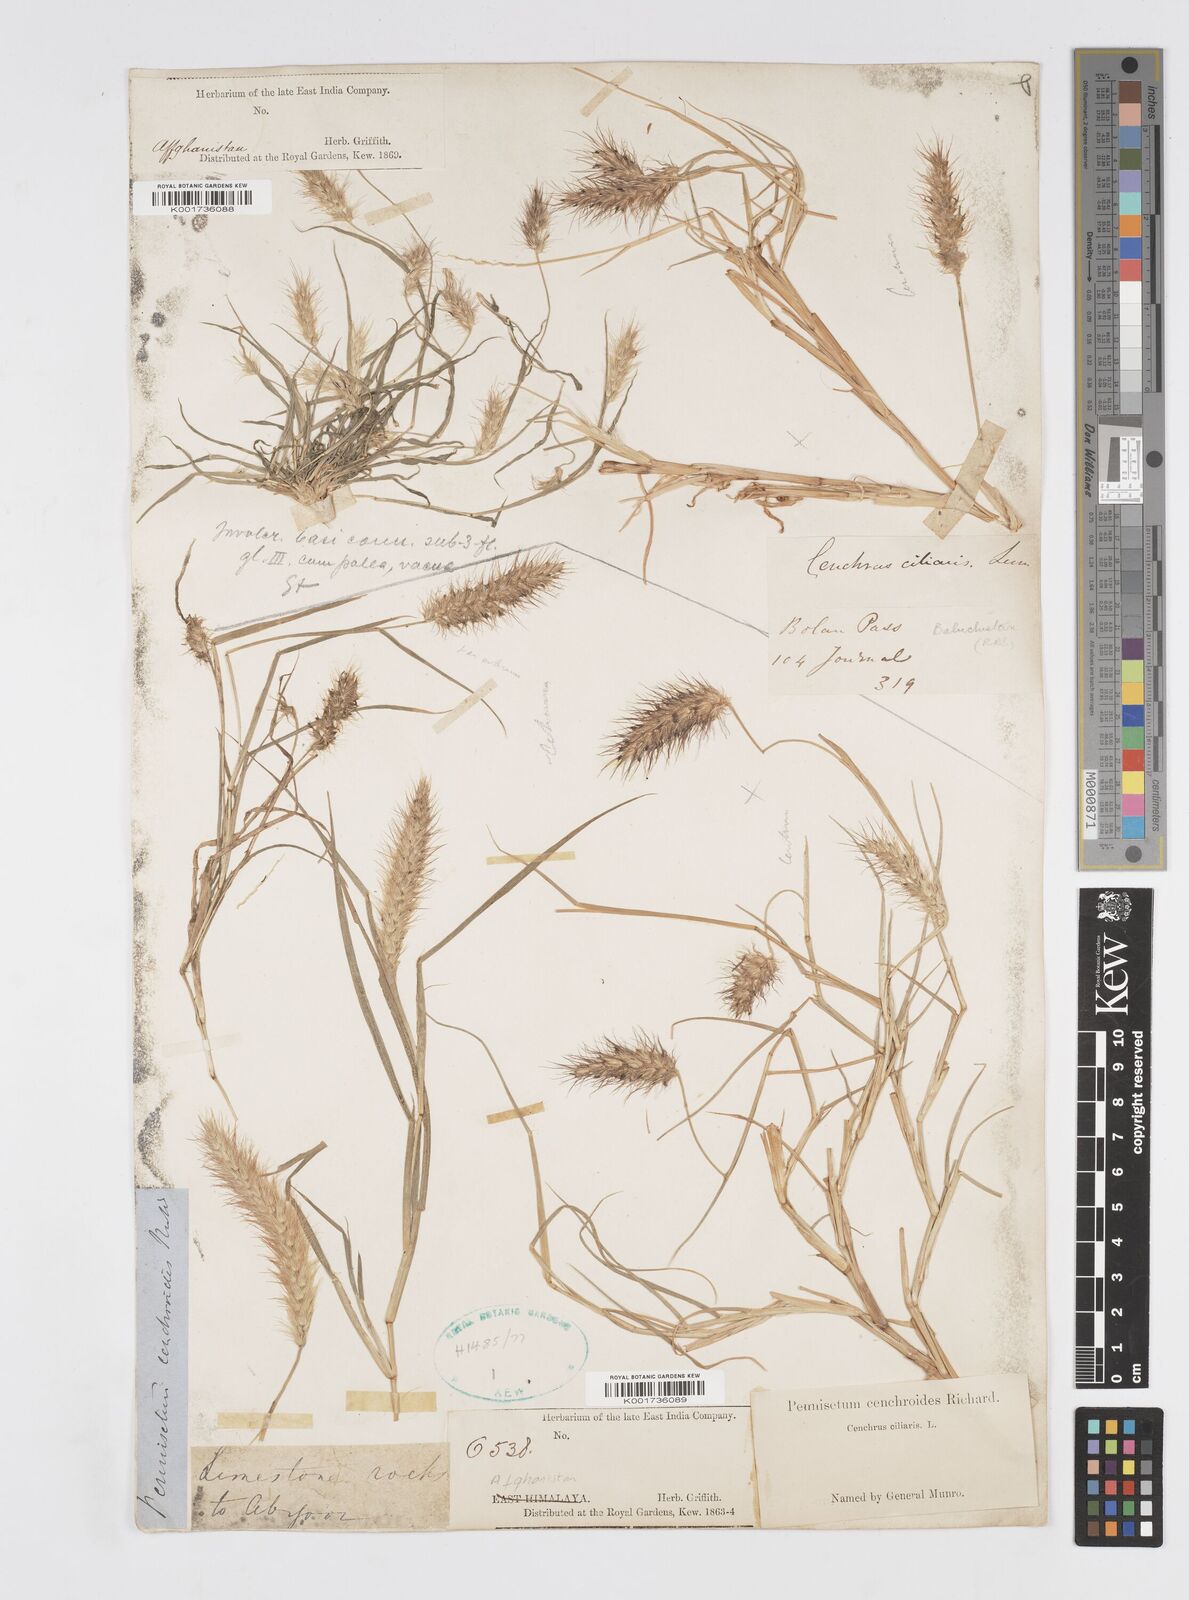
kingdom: Plantae
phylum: Tracheophyta
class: Liliopsida
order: Poales
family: Poaceae
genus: Cenchrus
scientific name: Cenchrus ciliaris
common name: Buffelgrass
